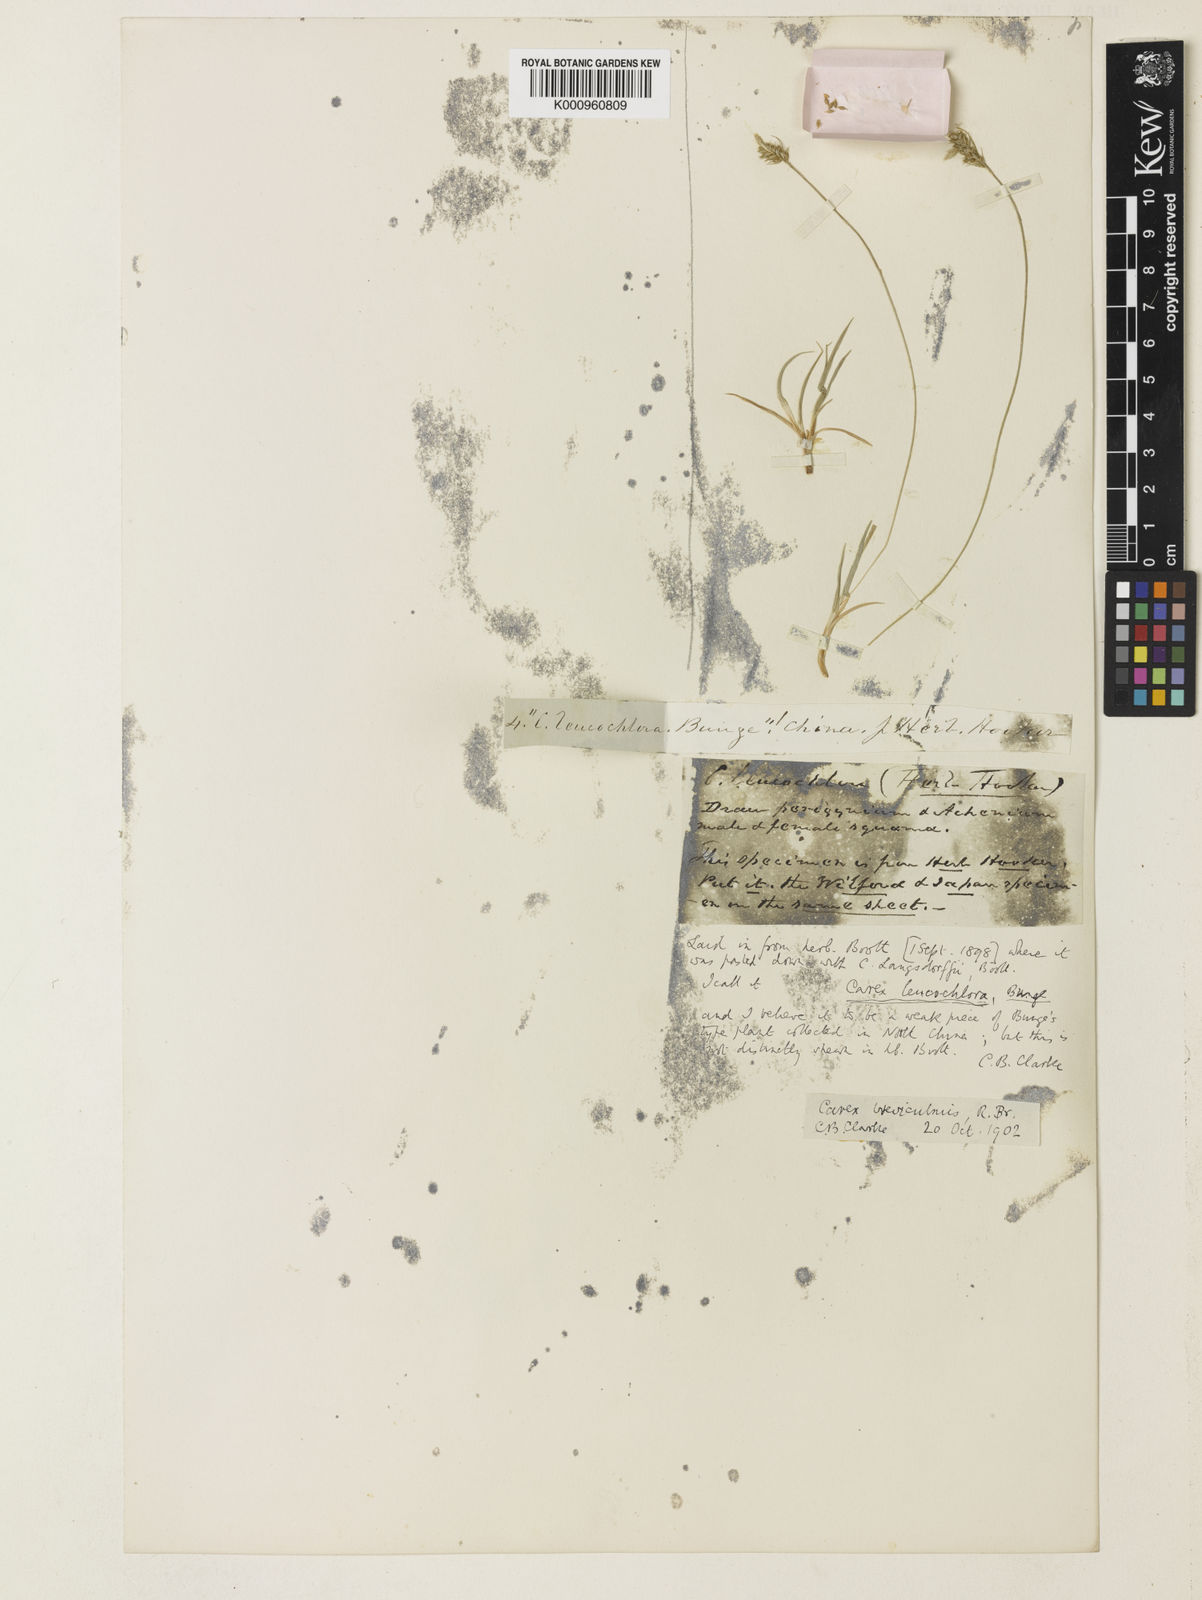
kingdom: Plantae
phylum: Tracheophyta
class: Liliopsida
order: Poales
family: Cyperaceae
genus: Carex
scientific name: Carex breviculmis
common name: Asian shortstem sedge
